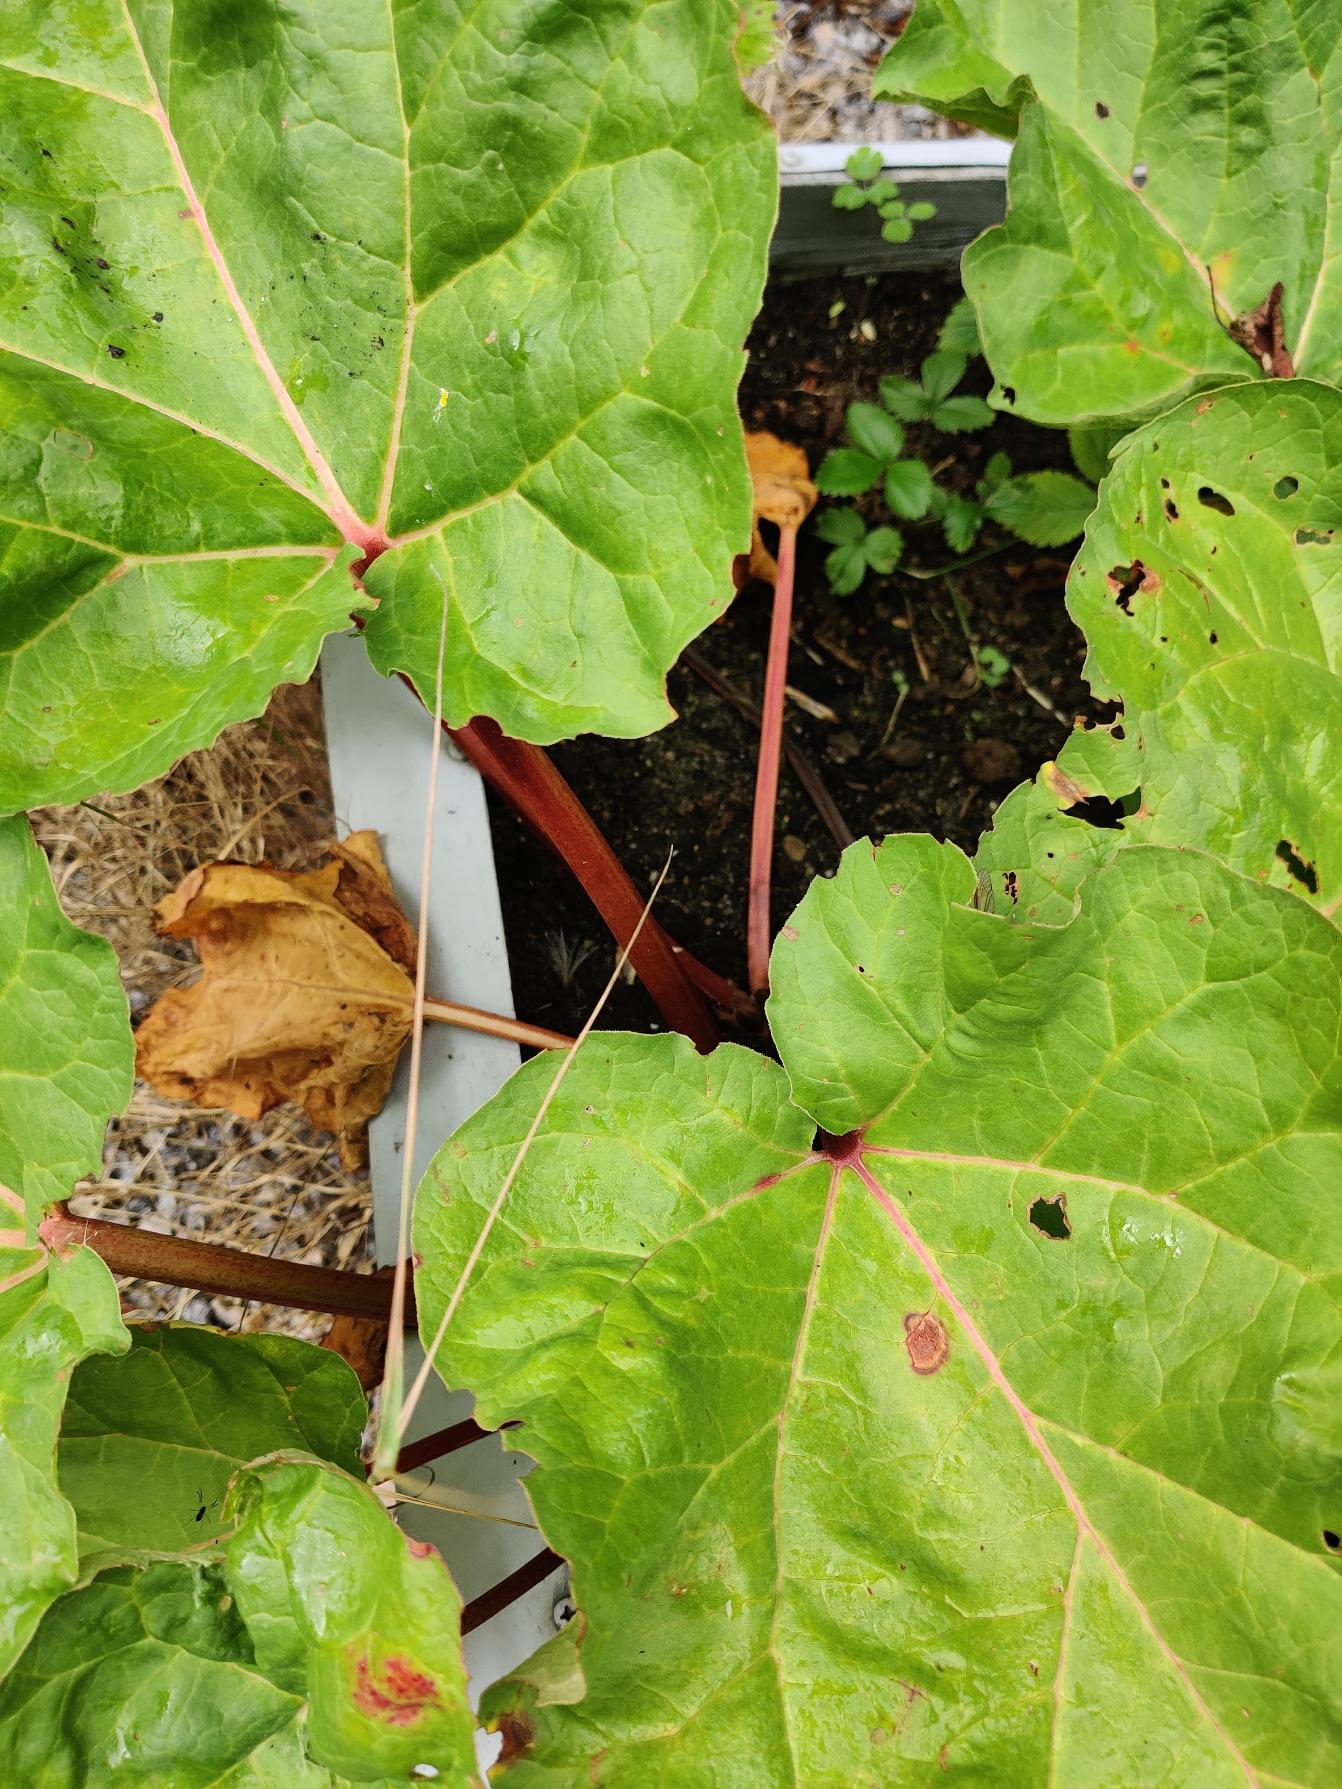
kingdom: Plantae
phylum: Tracheophyta
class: Magnoliopsida
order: Caryophyllales
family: Polygonaceae
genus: Rheum
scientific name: Rheum rhabarbarum
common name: Rabarber
